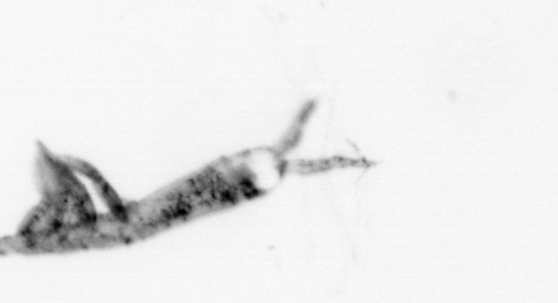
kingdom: Animalia
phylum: Arthropoda
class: Copepoda
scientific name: Copepoda
